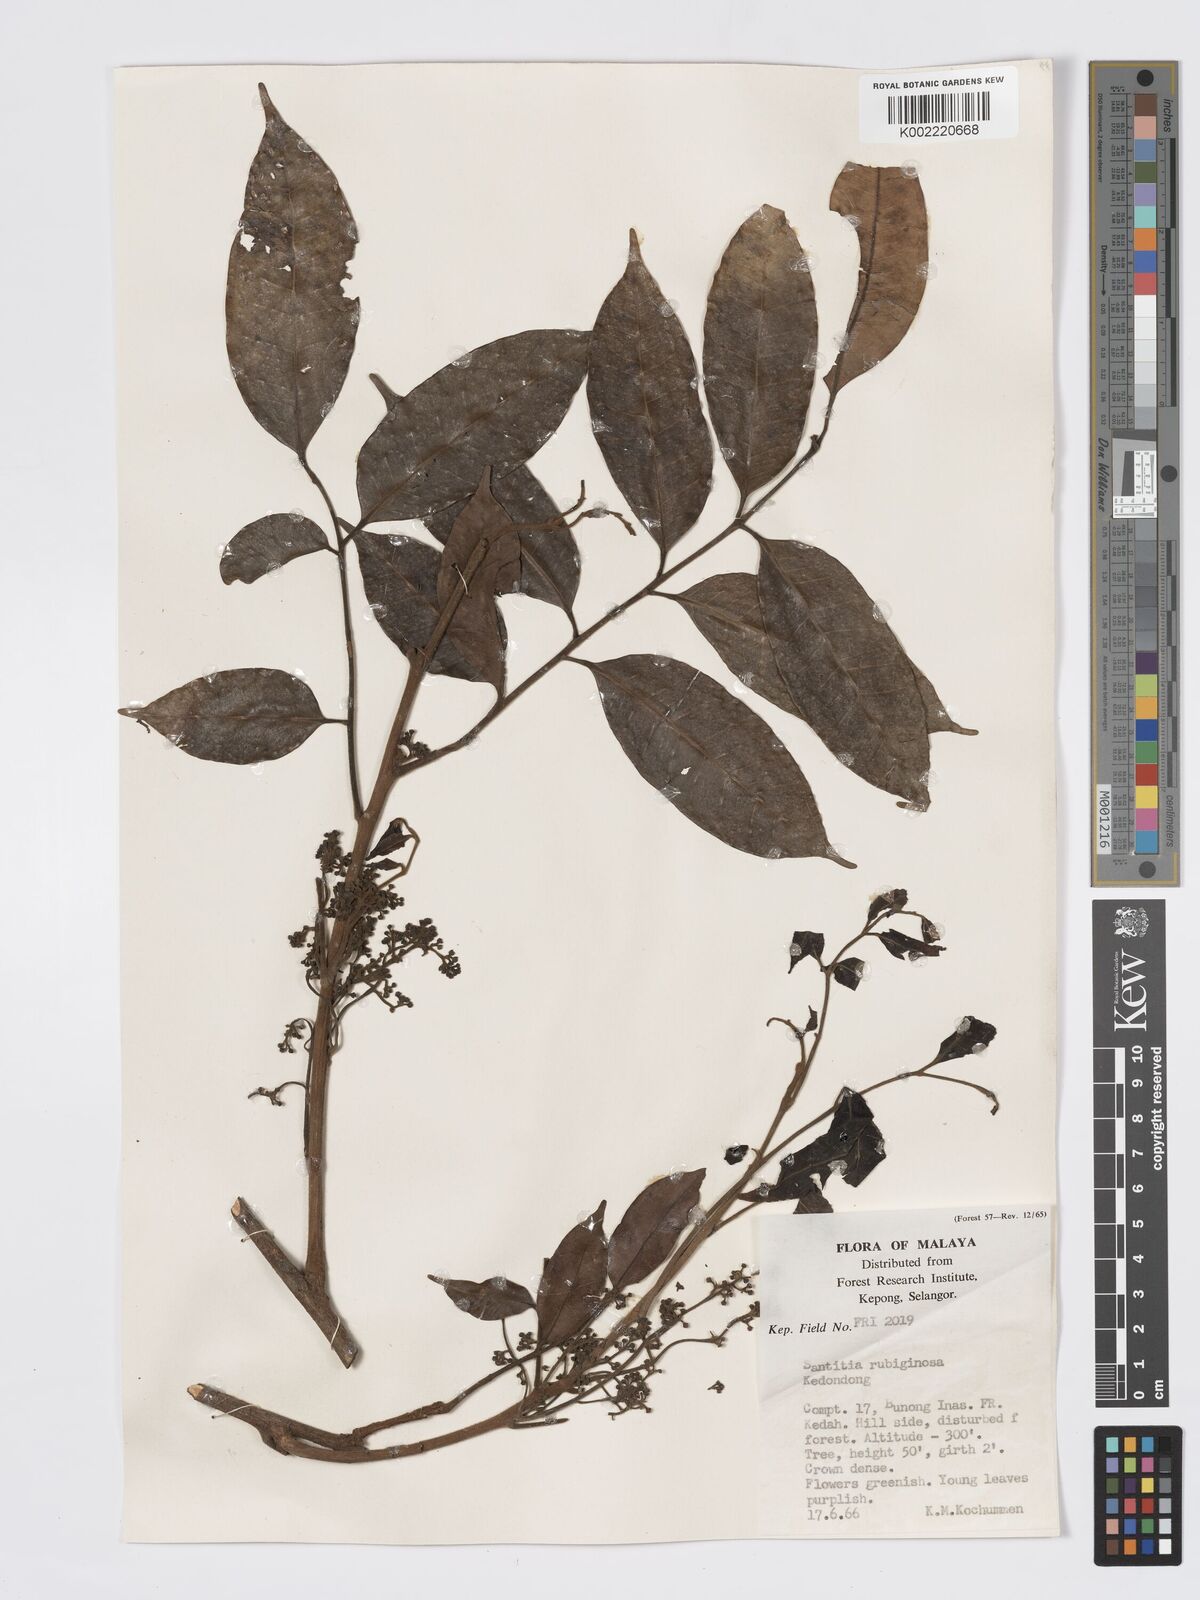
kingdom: Plantae
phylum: Tracheophyta
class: Magnoliopsida
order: Sapindales
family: Burseraceae
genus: Santiria
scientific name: Santiria rubiginosa
